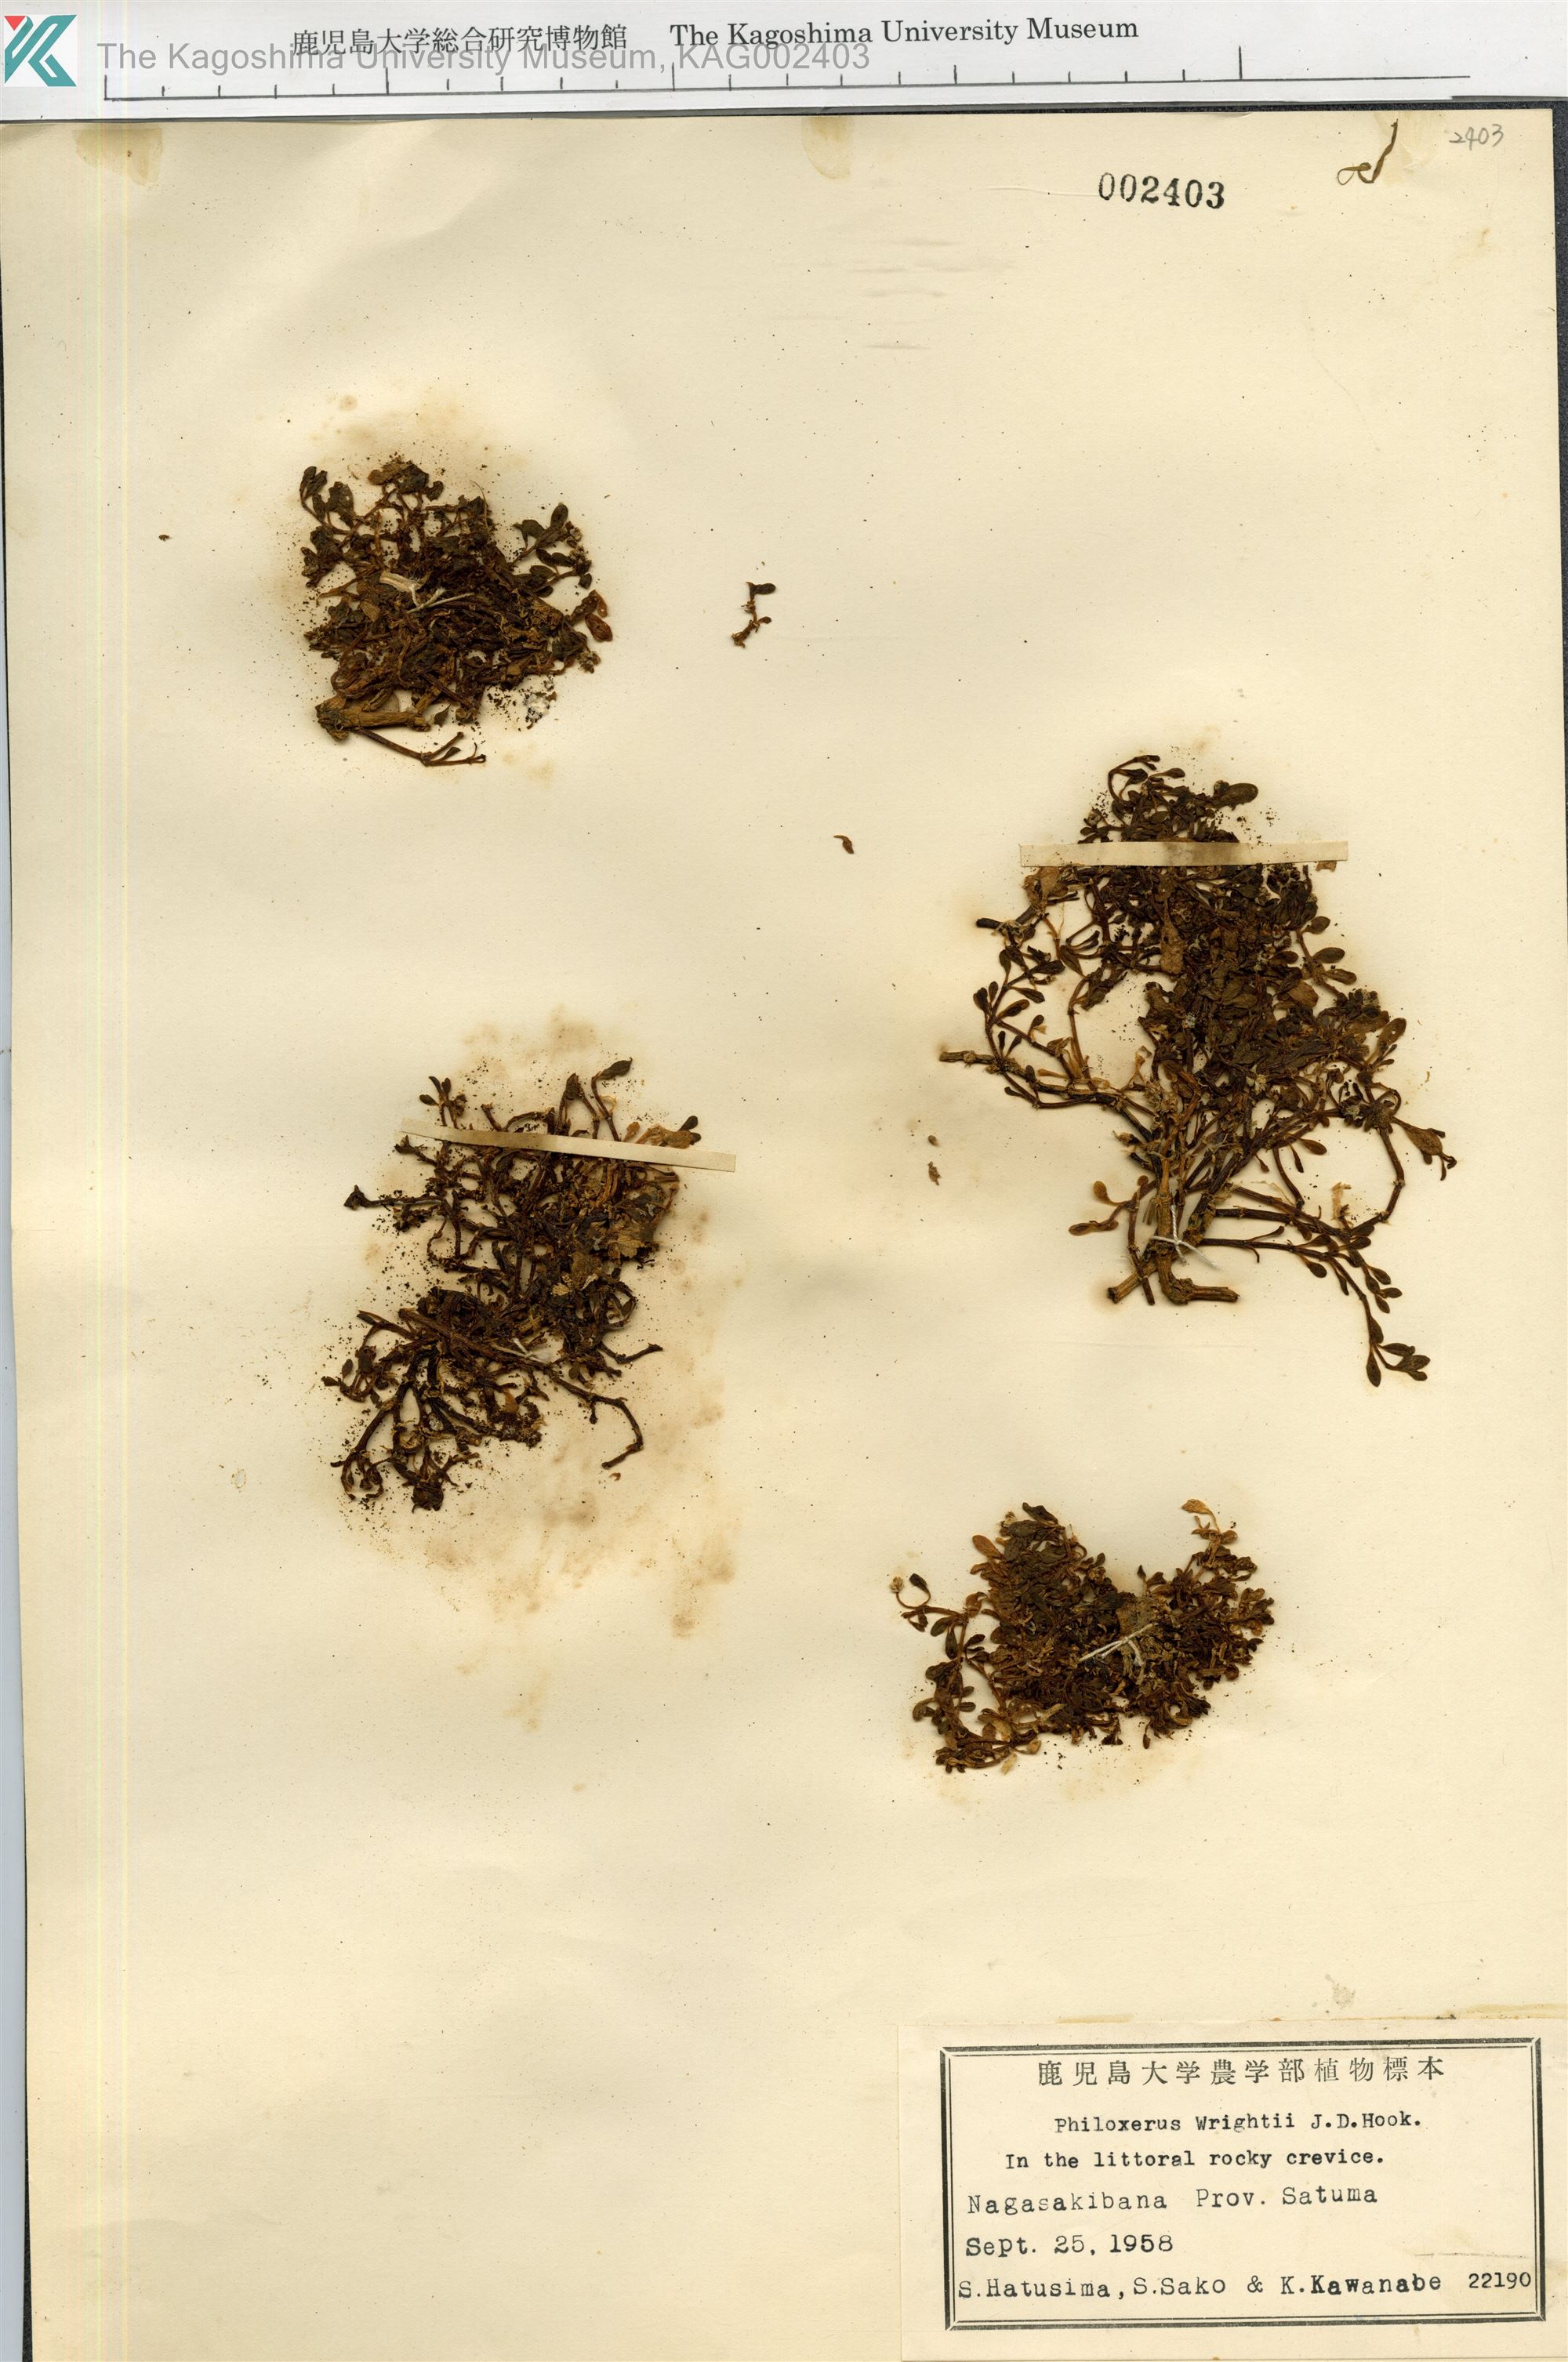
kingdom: Plantae
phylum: Tracheophyta
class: Magnoliopsida
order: Caryophyllales
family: Amaranthaceae
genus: Gomphrena
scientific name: Gomphrena wrightii
